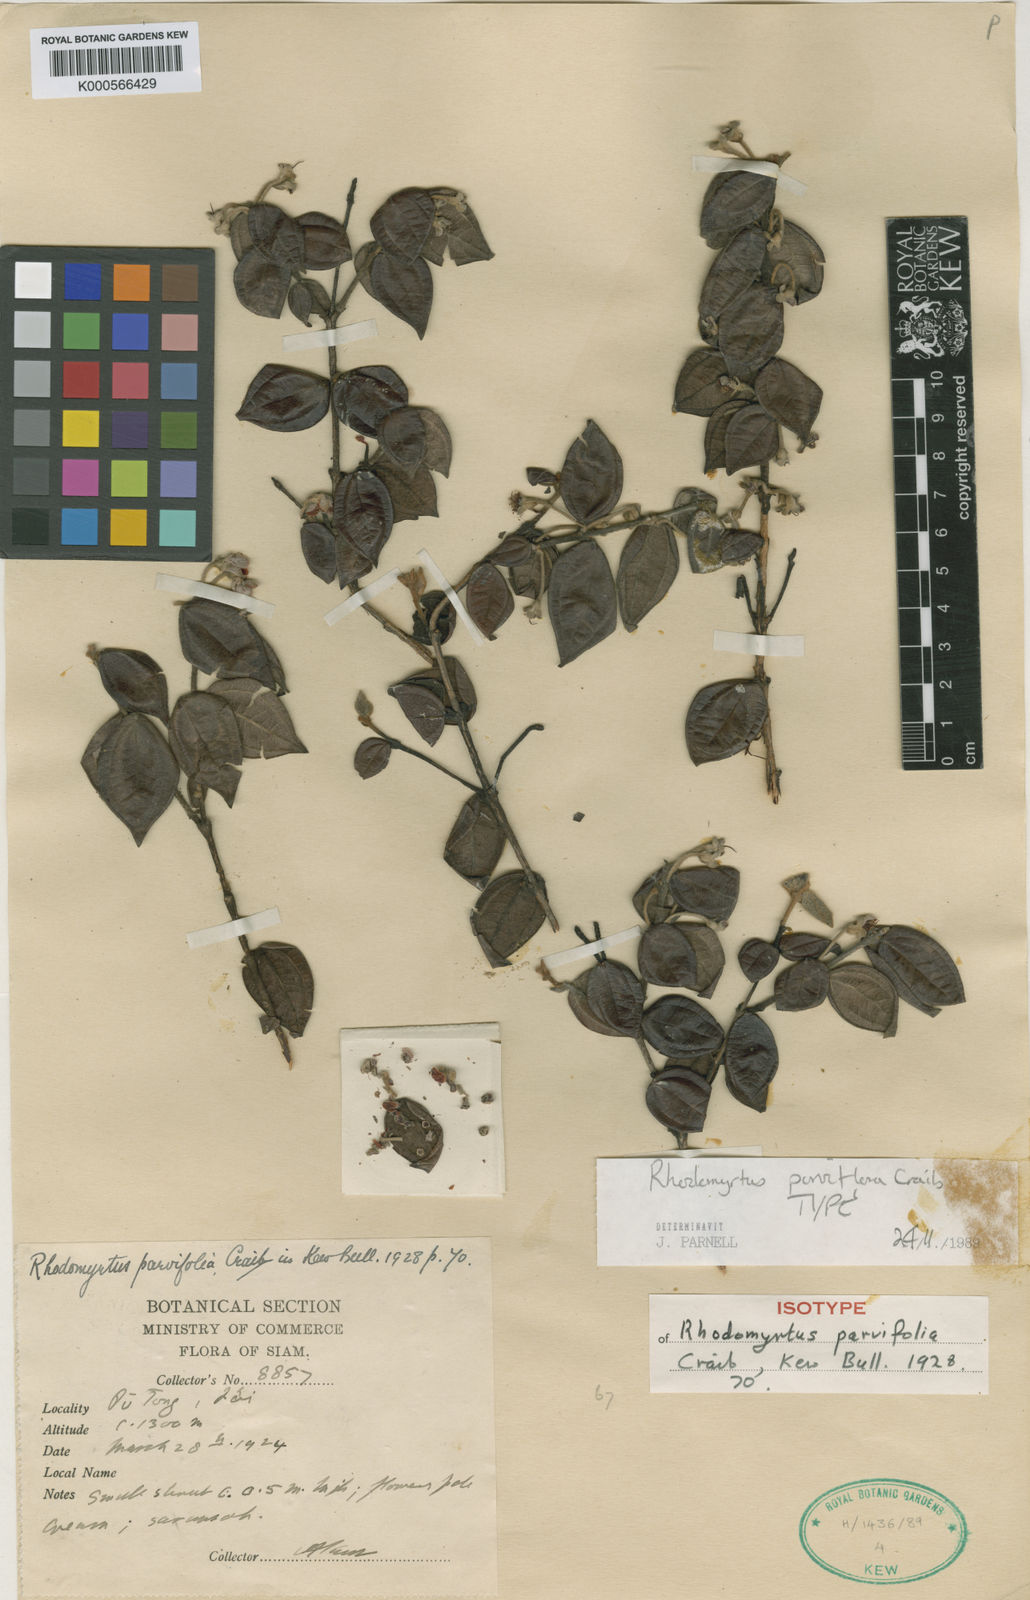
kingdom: Plantae
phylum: Tracheophyta
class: Magnoliopsida
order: Myrtales
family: Myrtaceae
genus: Rhodamnia
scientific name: Rhodamnia kerrii
